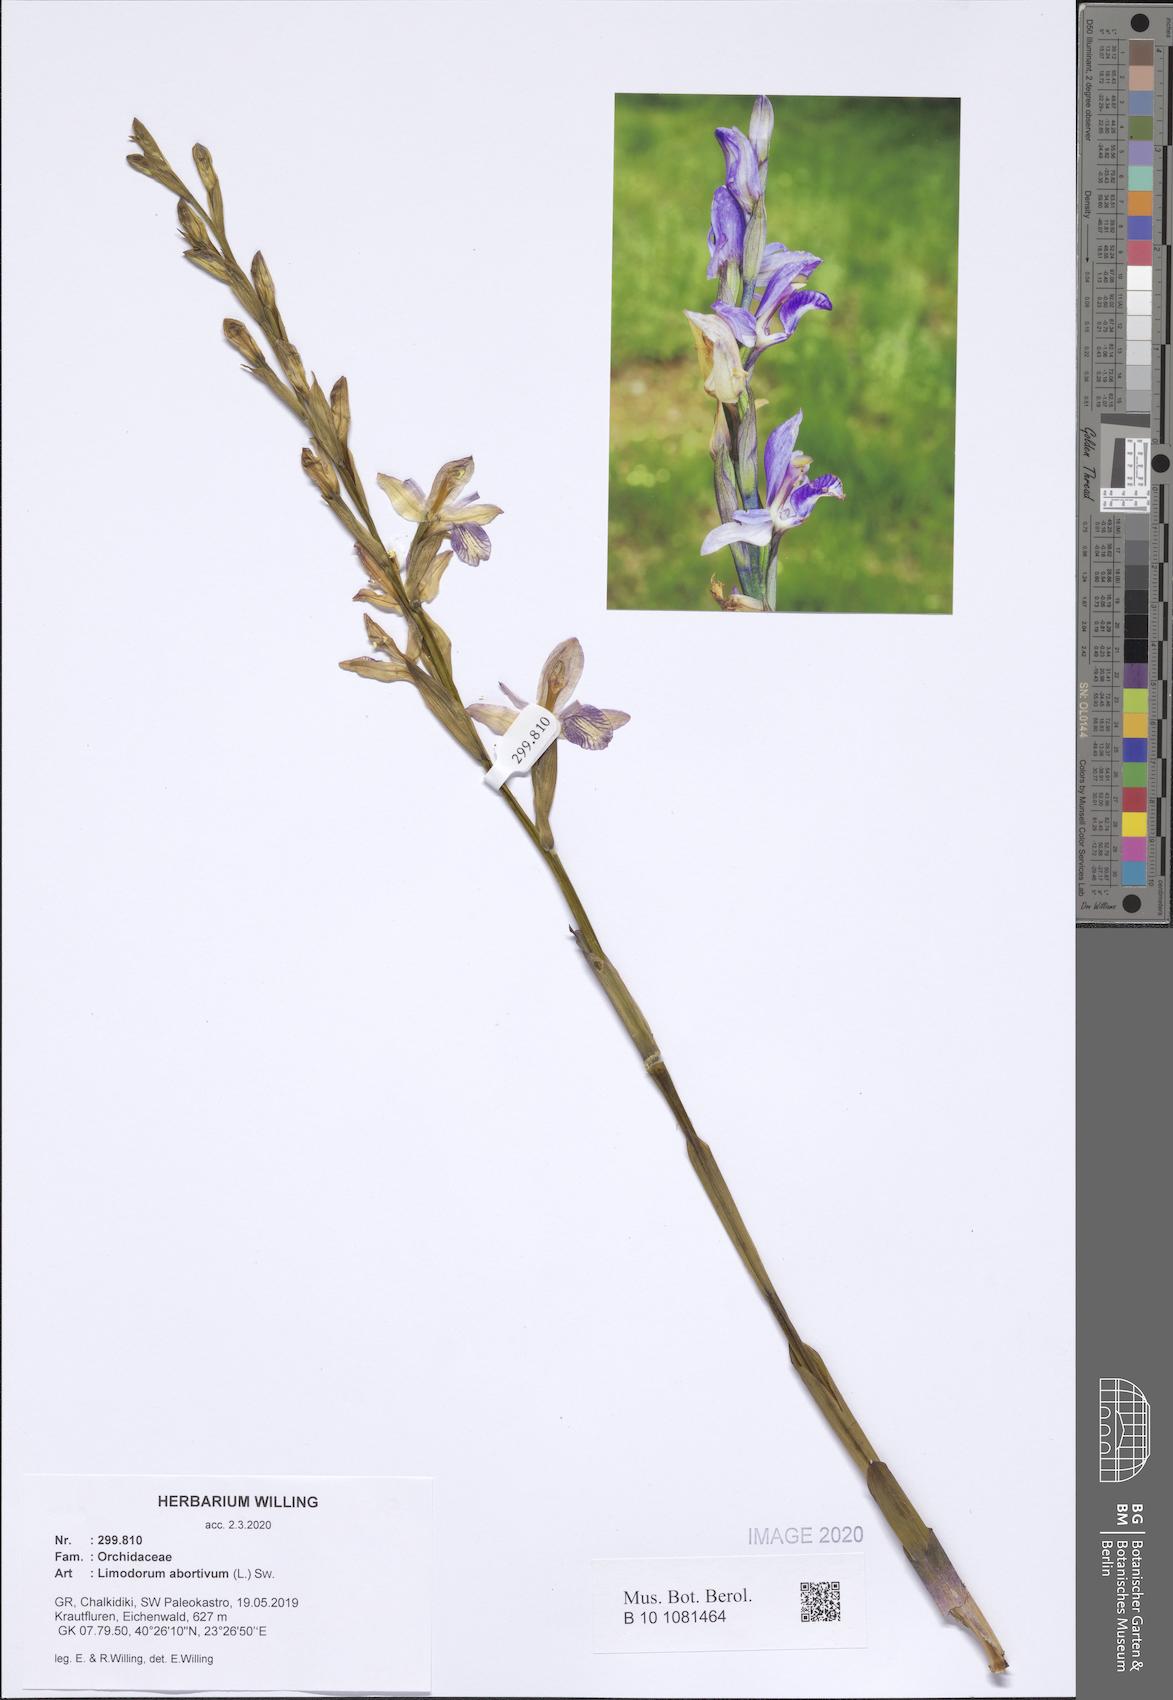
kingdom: Plantae
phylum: Tracheophyta
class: Liliopsida
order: Asparagales
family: Orchidaceae
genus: Limodorum
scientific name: Limodorum abortivum
